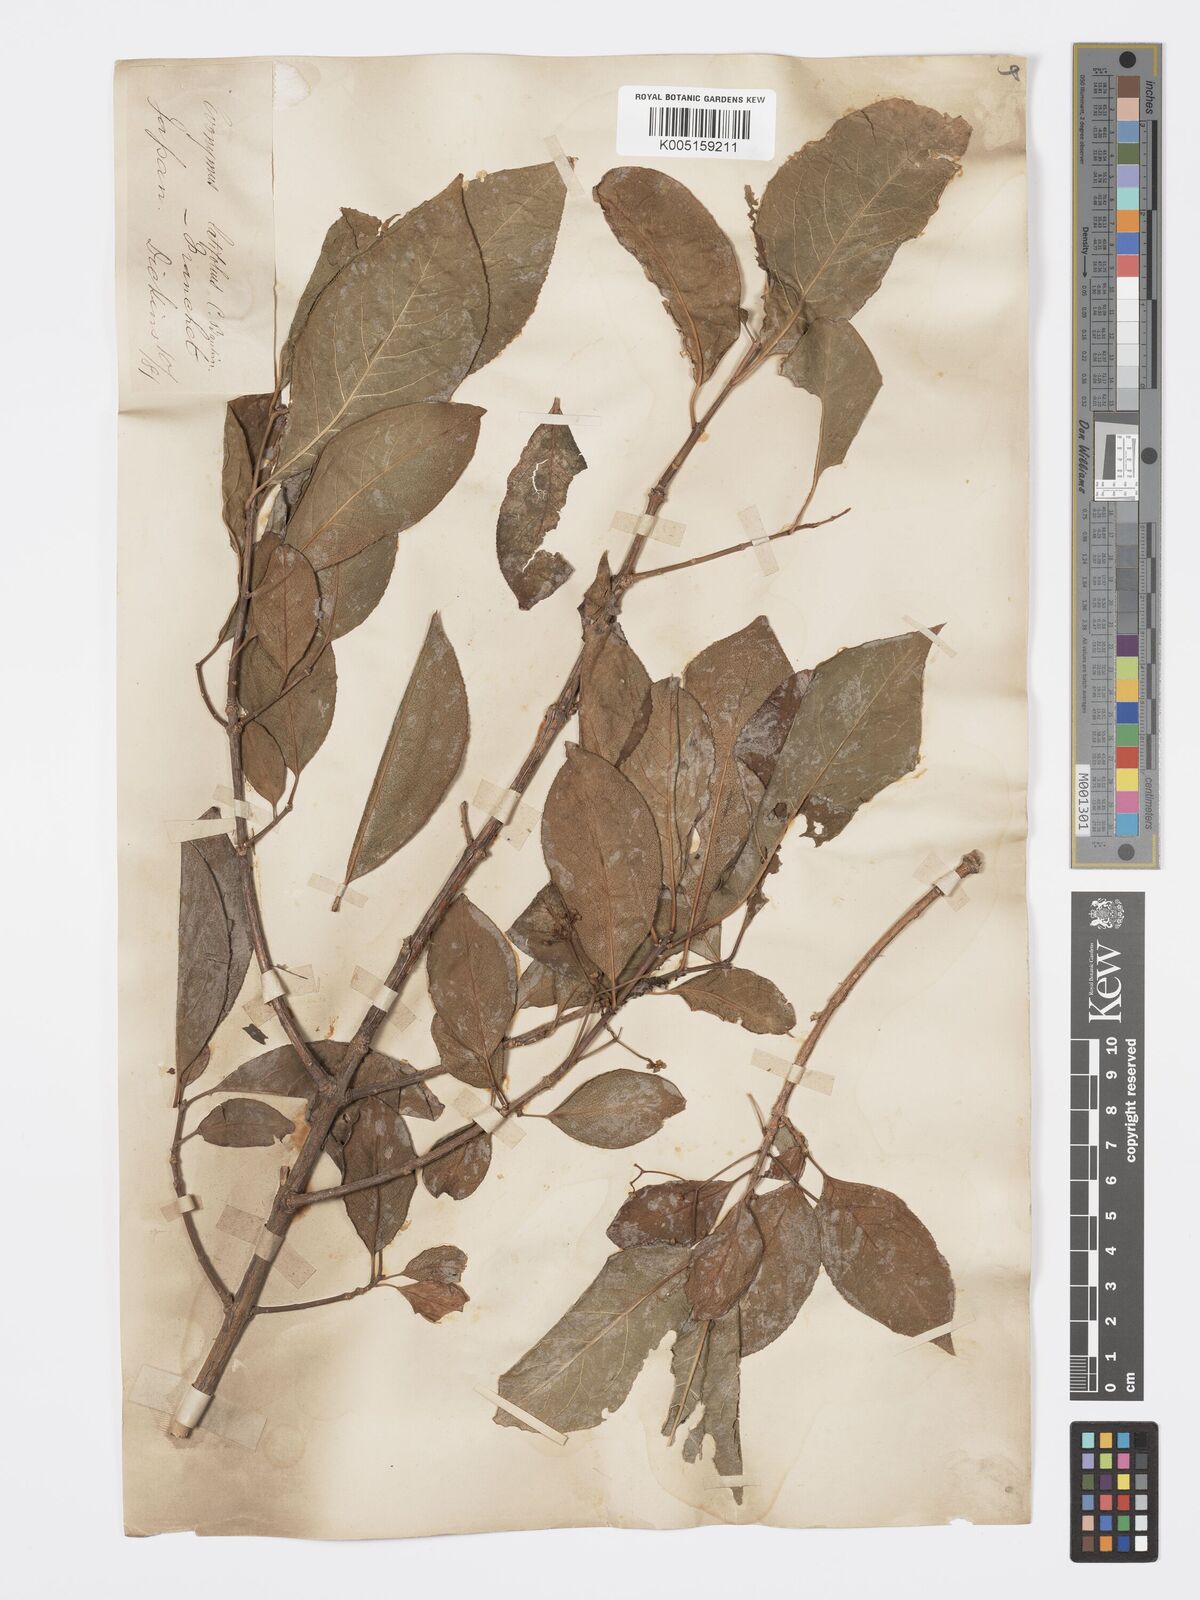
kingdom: Plantae
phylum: Tracheophyta
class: Magnoliopsida
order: Celastrales
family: Celastraceae
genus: Euonymus
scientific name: Euonymus hamiltonianus
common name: Hamilton's spindletree
